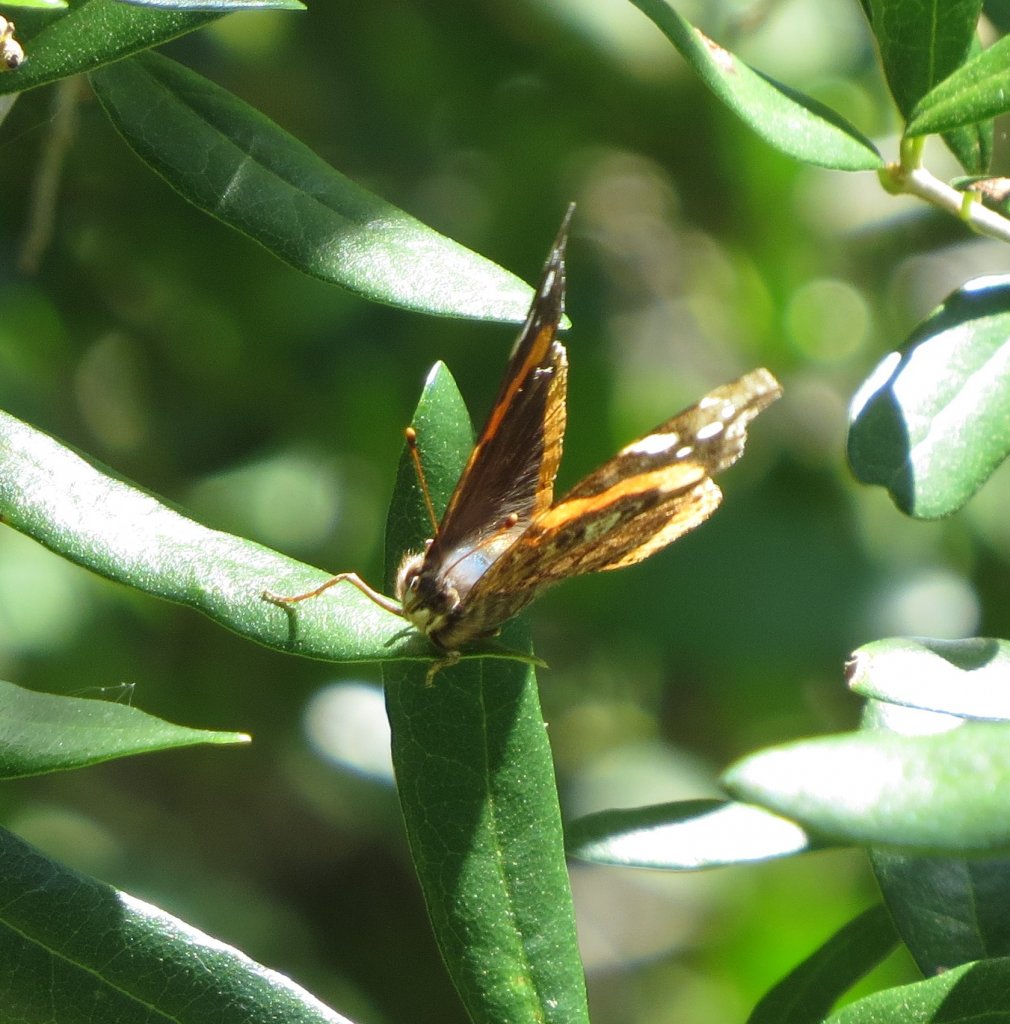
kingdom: Animalia
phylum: Arthropoda
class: Insecta
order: Lepidoptera
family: Nymphalidae
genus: Vanessa
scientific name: Vanessa atalanta
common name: Red Admiral
